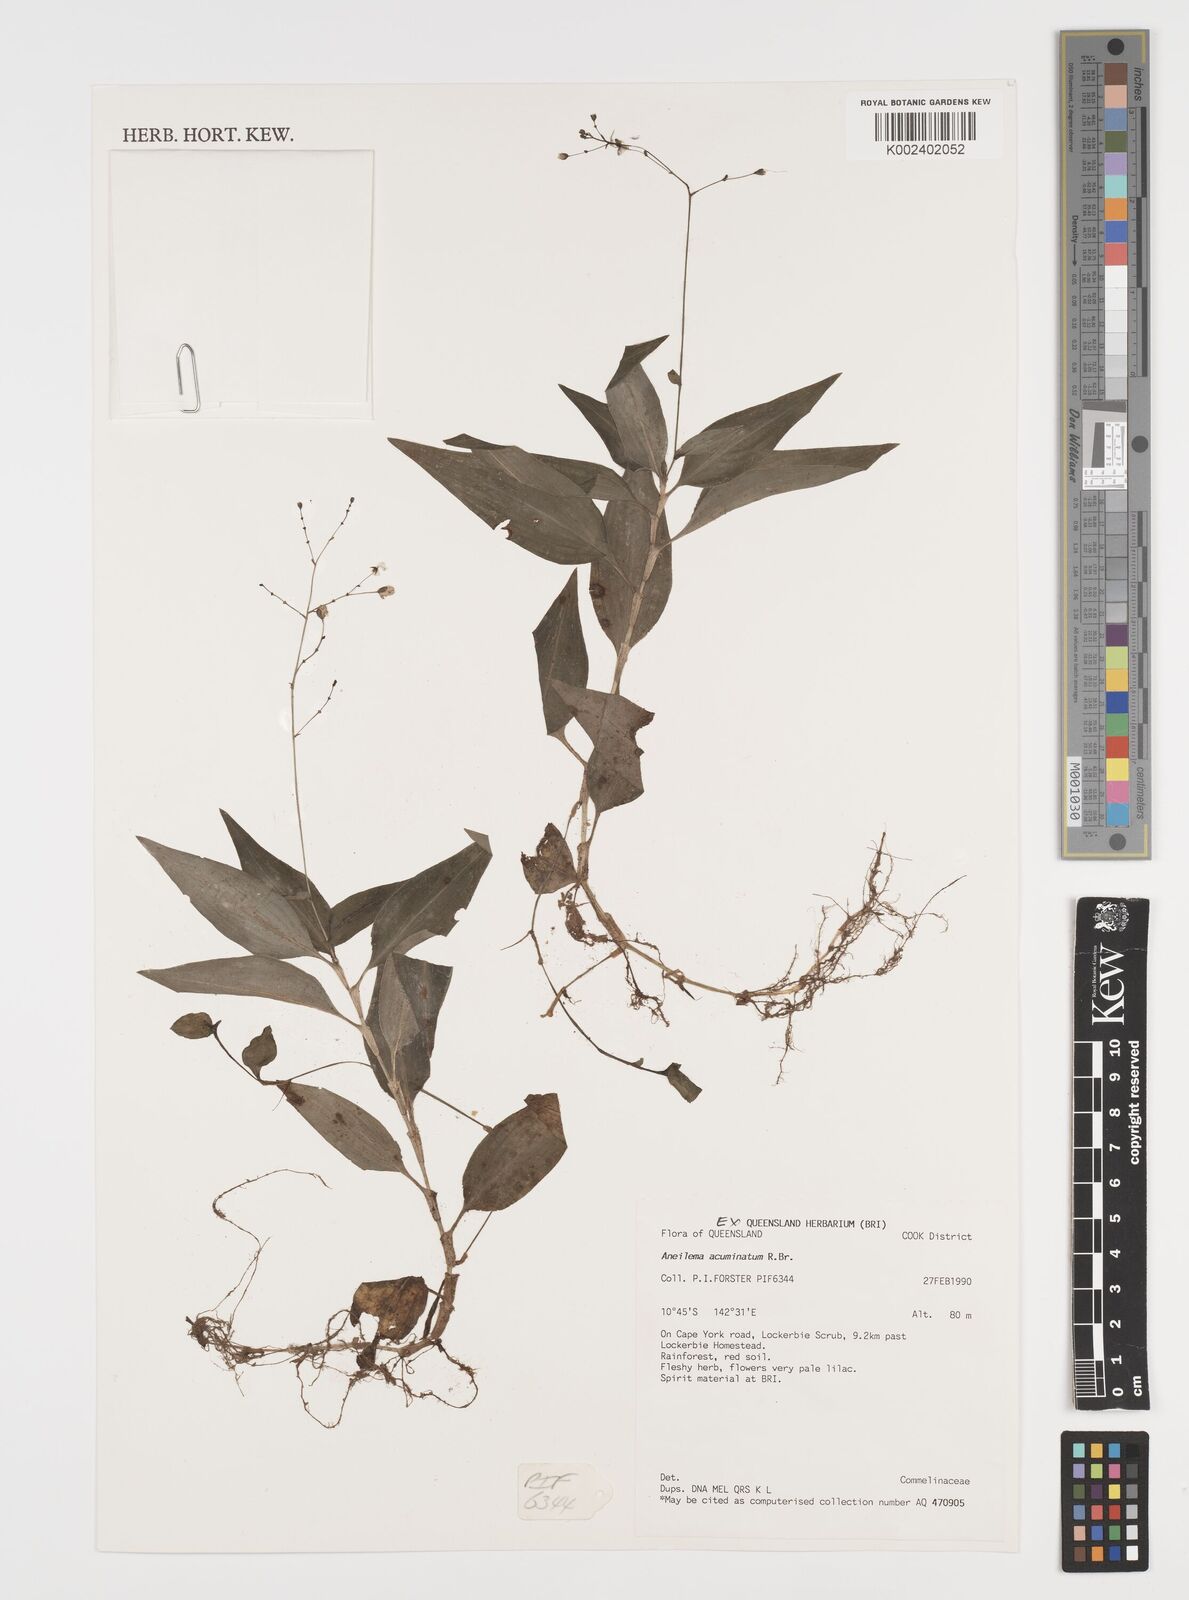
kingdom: Plantae
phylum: Tracheophyta
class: Liliopsida
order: Commelinales
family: Commelinaceae
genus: Aneilema
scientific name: Aneilema acuminatum
